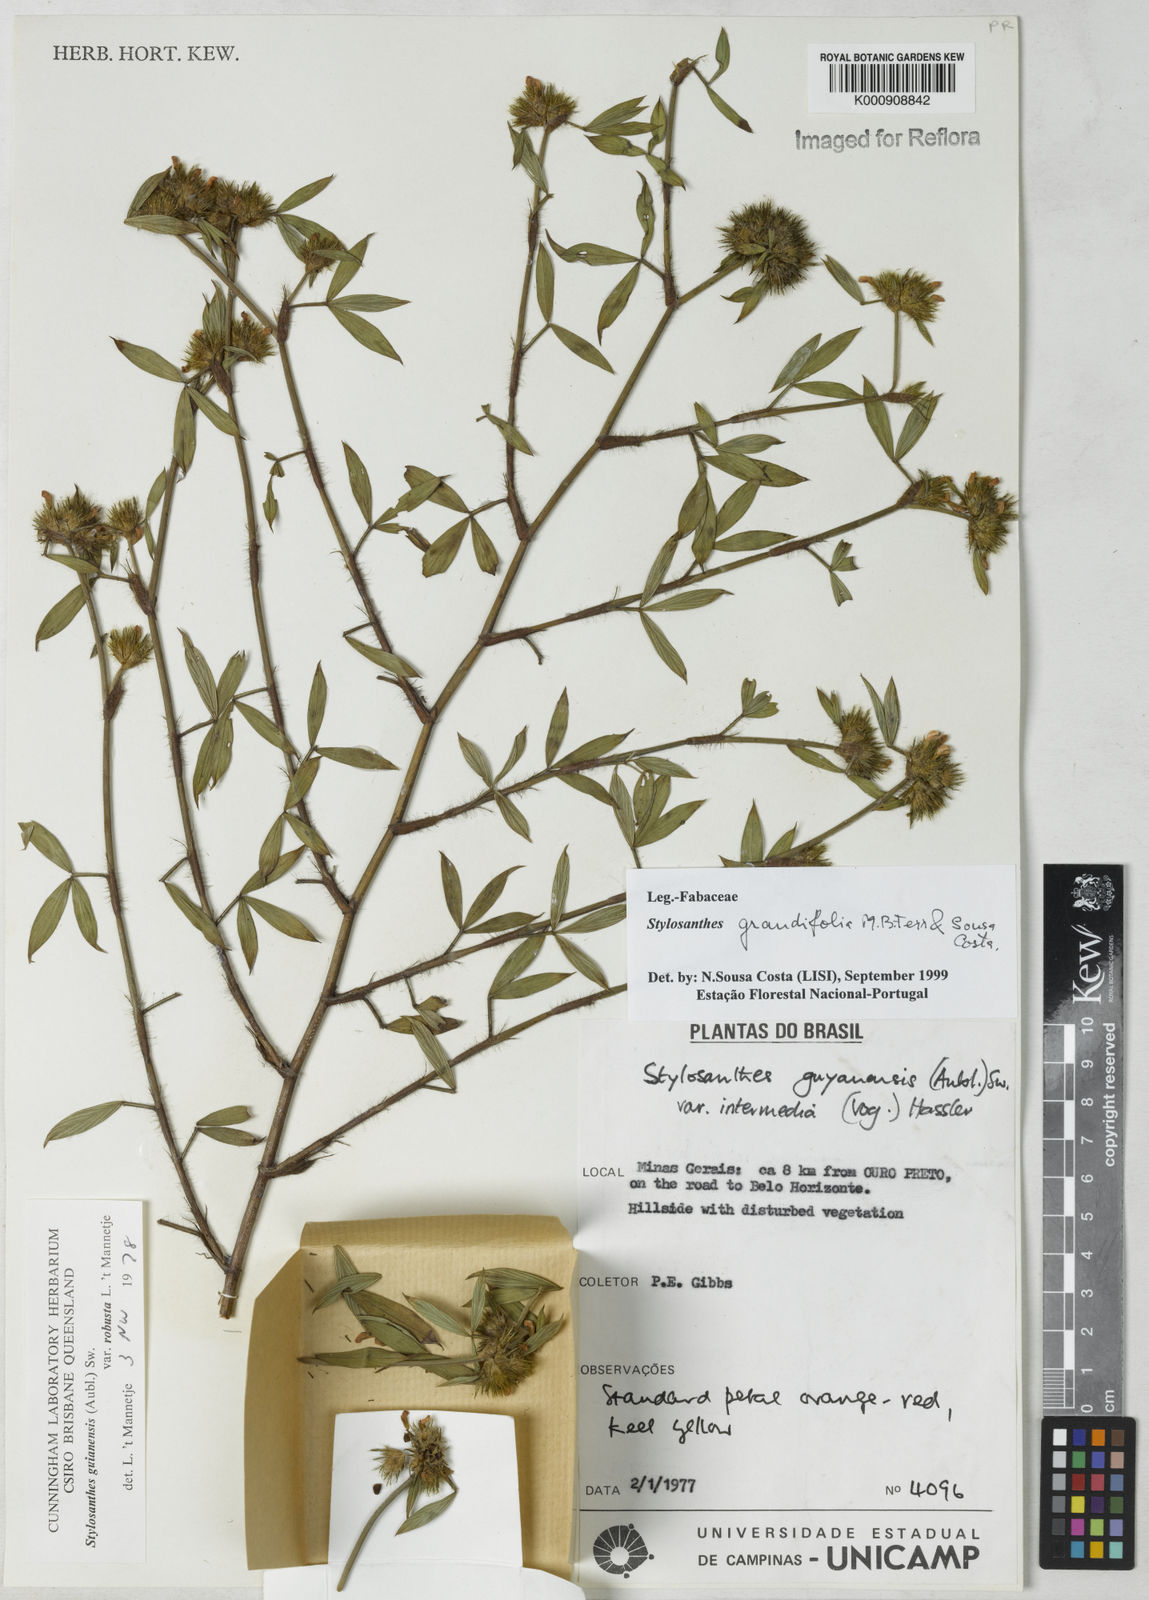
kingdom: Plantae
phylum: Tracheophyta
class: Magnoliopsida
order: Fabales
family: Fabaceae
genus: Stylosanthes
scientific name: Stylosanthes guianensis
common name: Pencil flower
